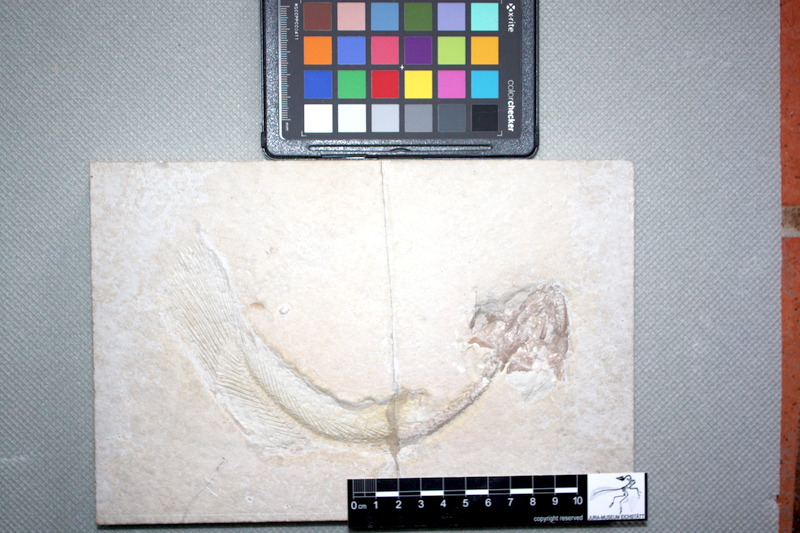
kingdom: Animalia
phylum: Chordata
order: Amiiformes
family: Amiidae
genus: Amiopsis
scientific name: Amiopsis lepidota
